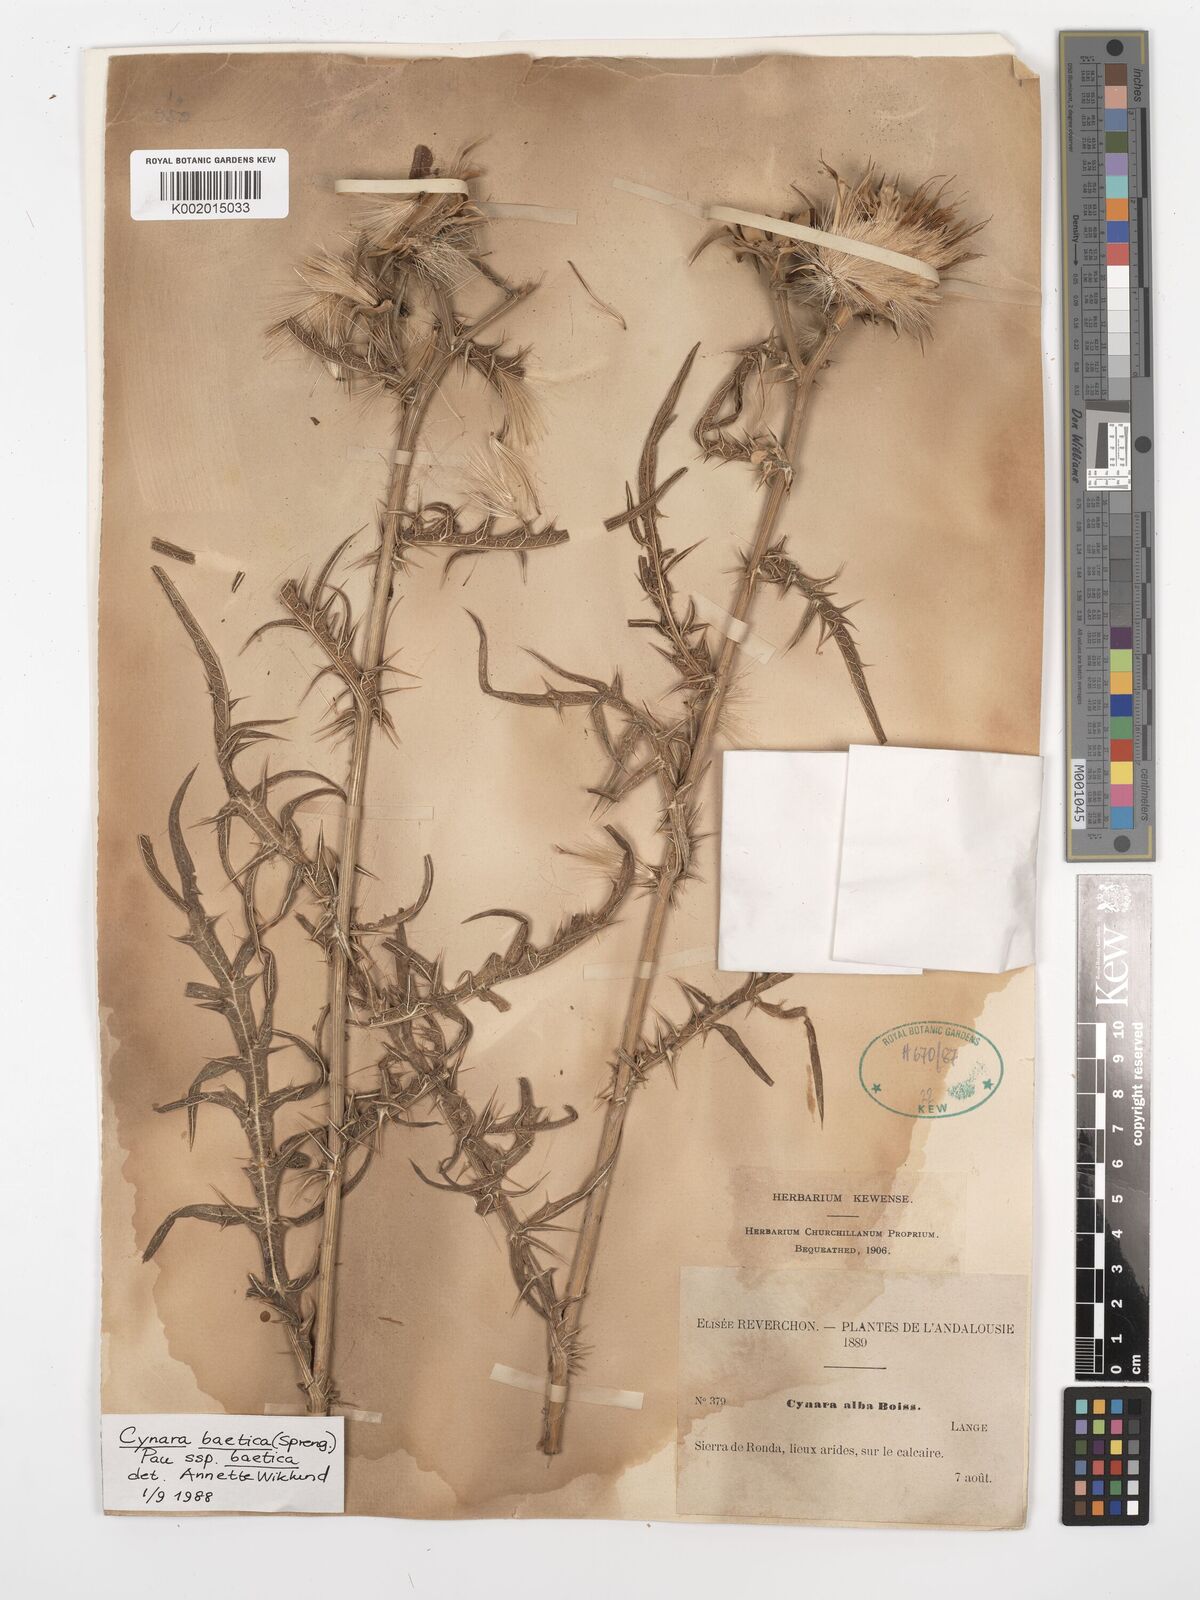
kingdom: Plantae
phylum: Tracheophyta
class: Magnoliopsida
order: Asterales
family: Asteraceae
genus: Cynara
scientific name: Cynara baetica
